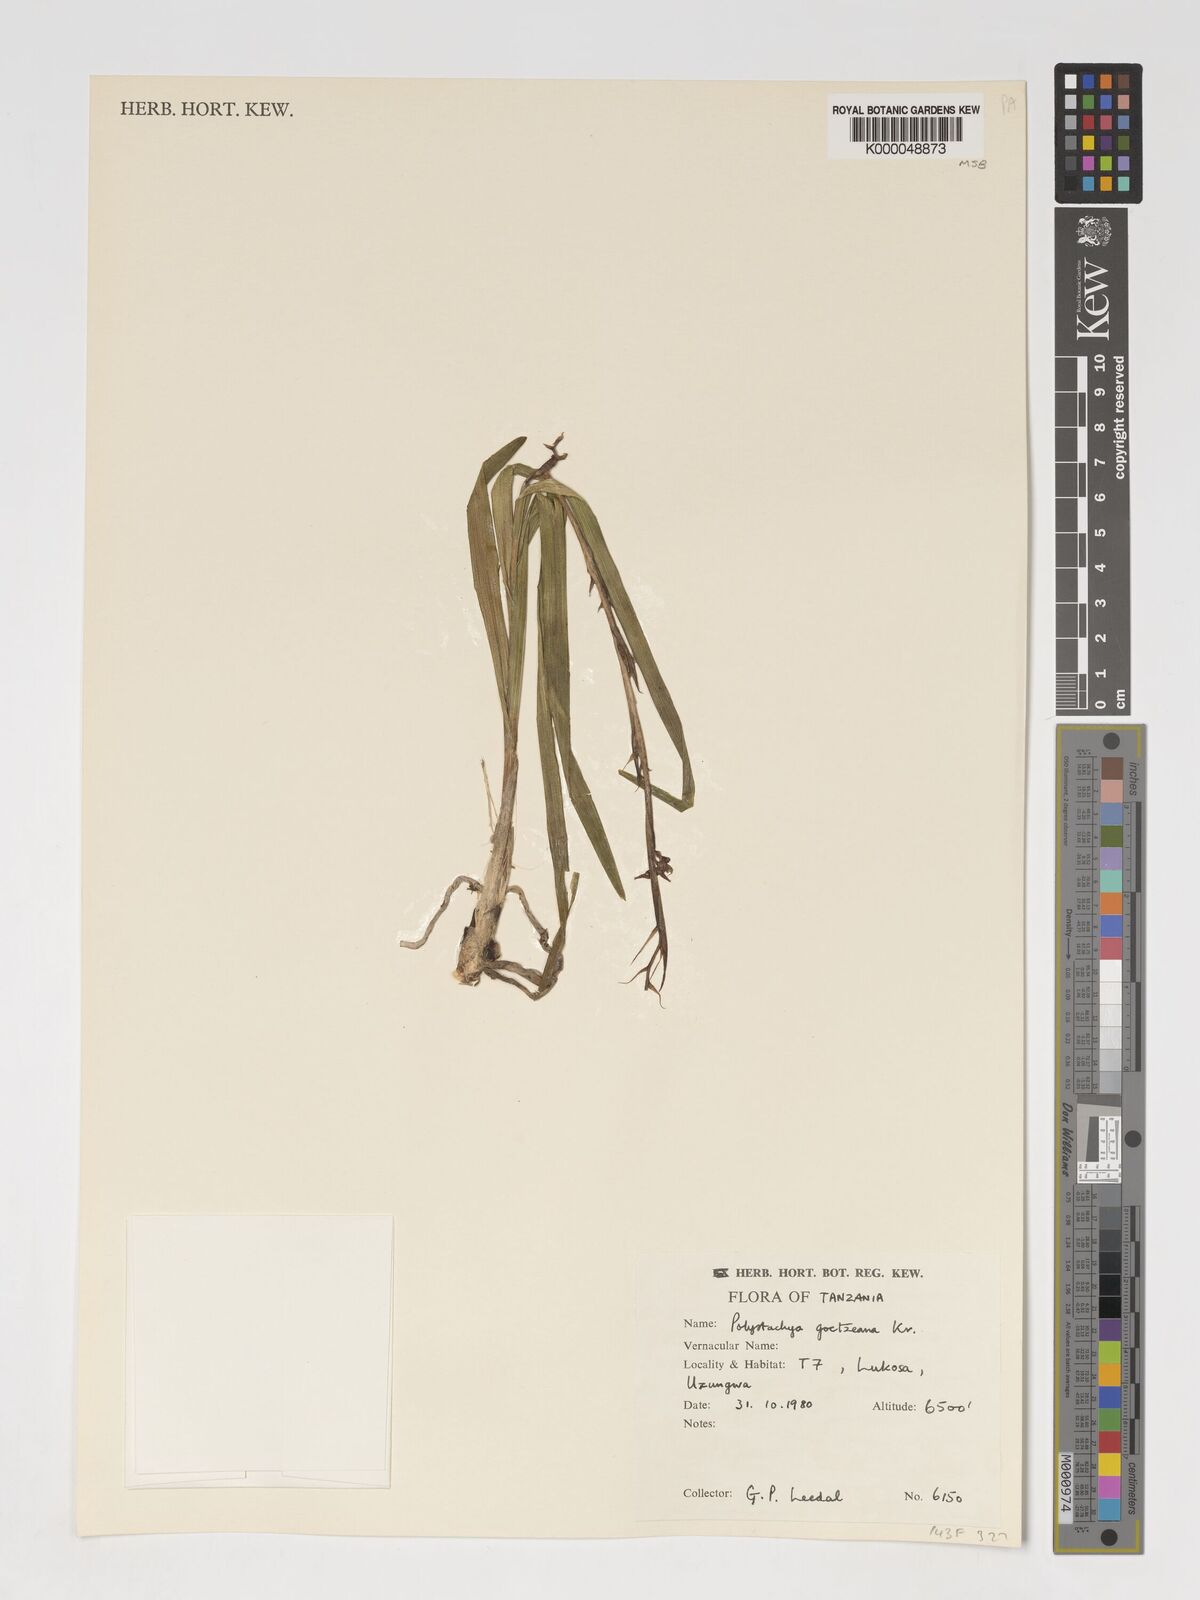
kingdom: Plantae
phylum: Tracheophyta
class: Liliopsida
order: Asparagales
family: Orchidaceae
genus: Polystachya
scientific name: Polystachya goetzeana
